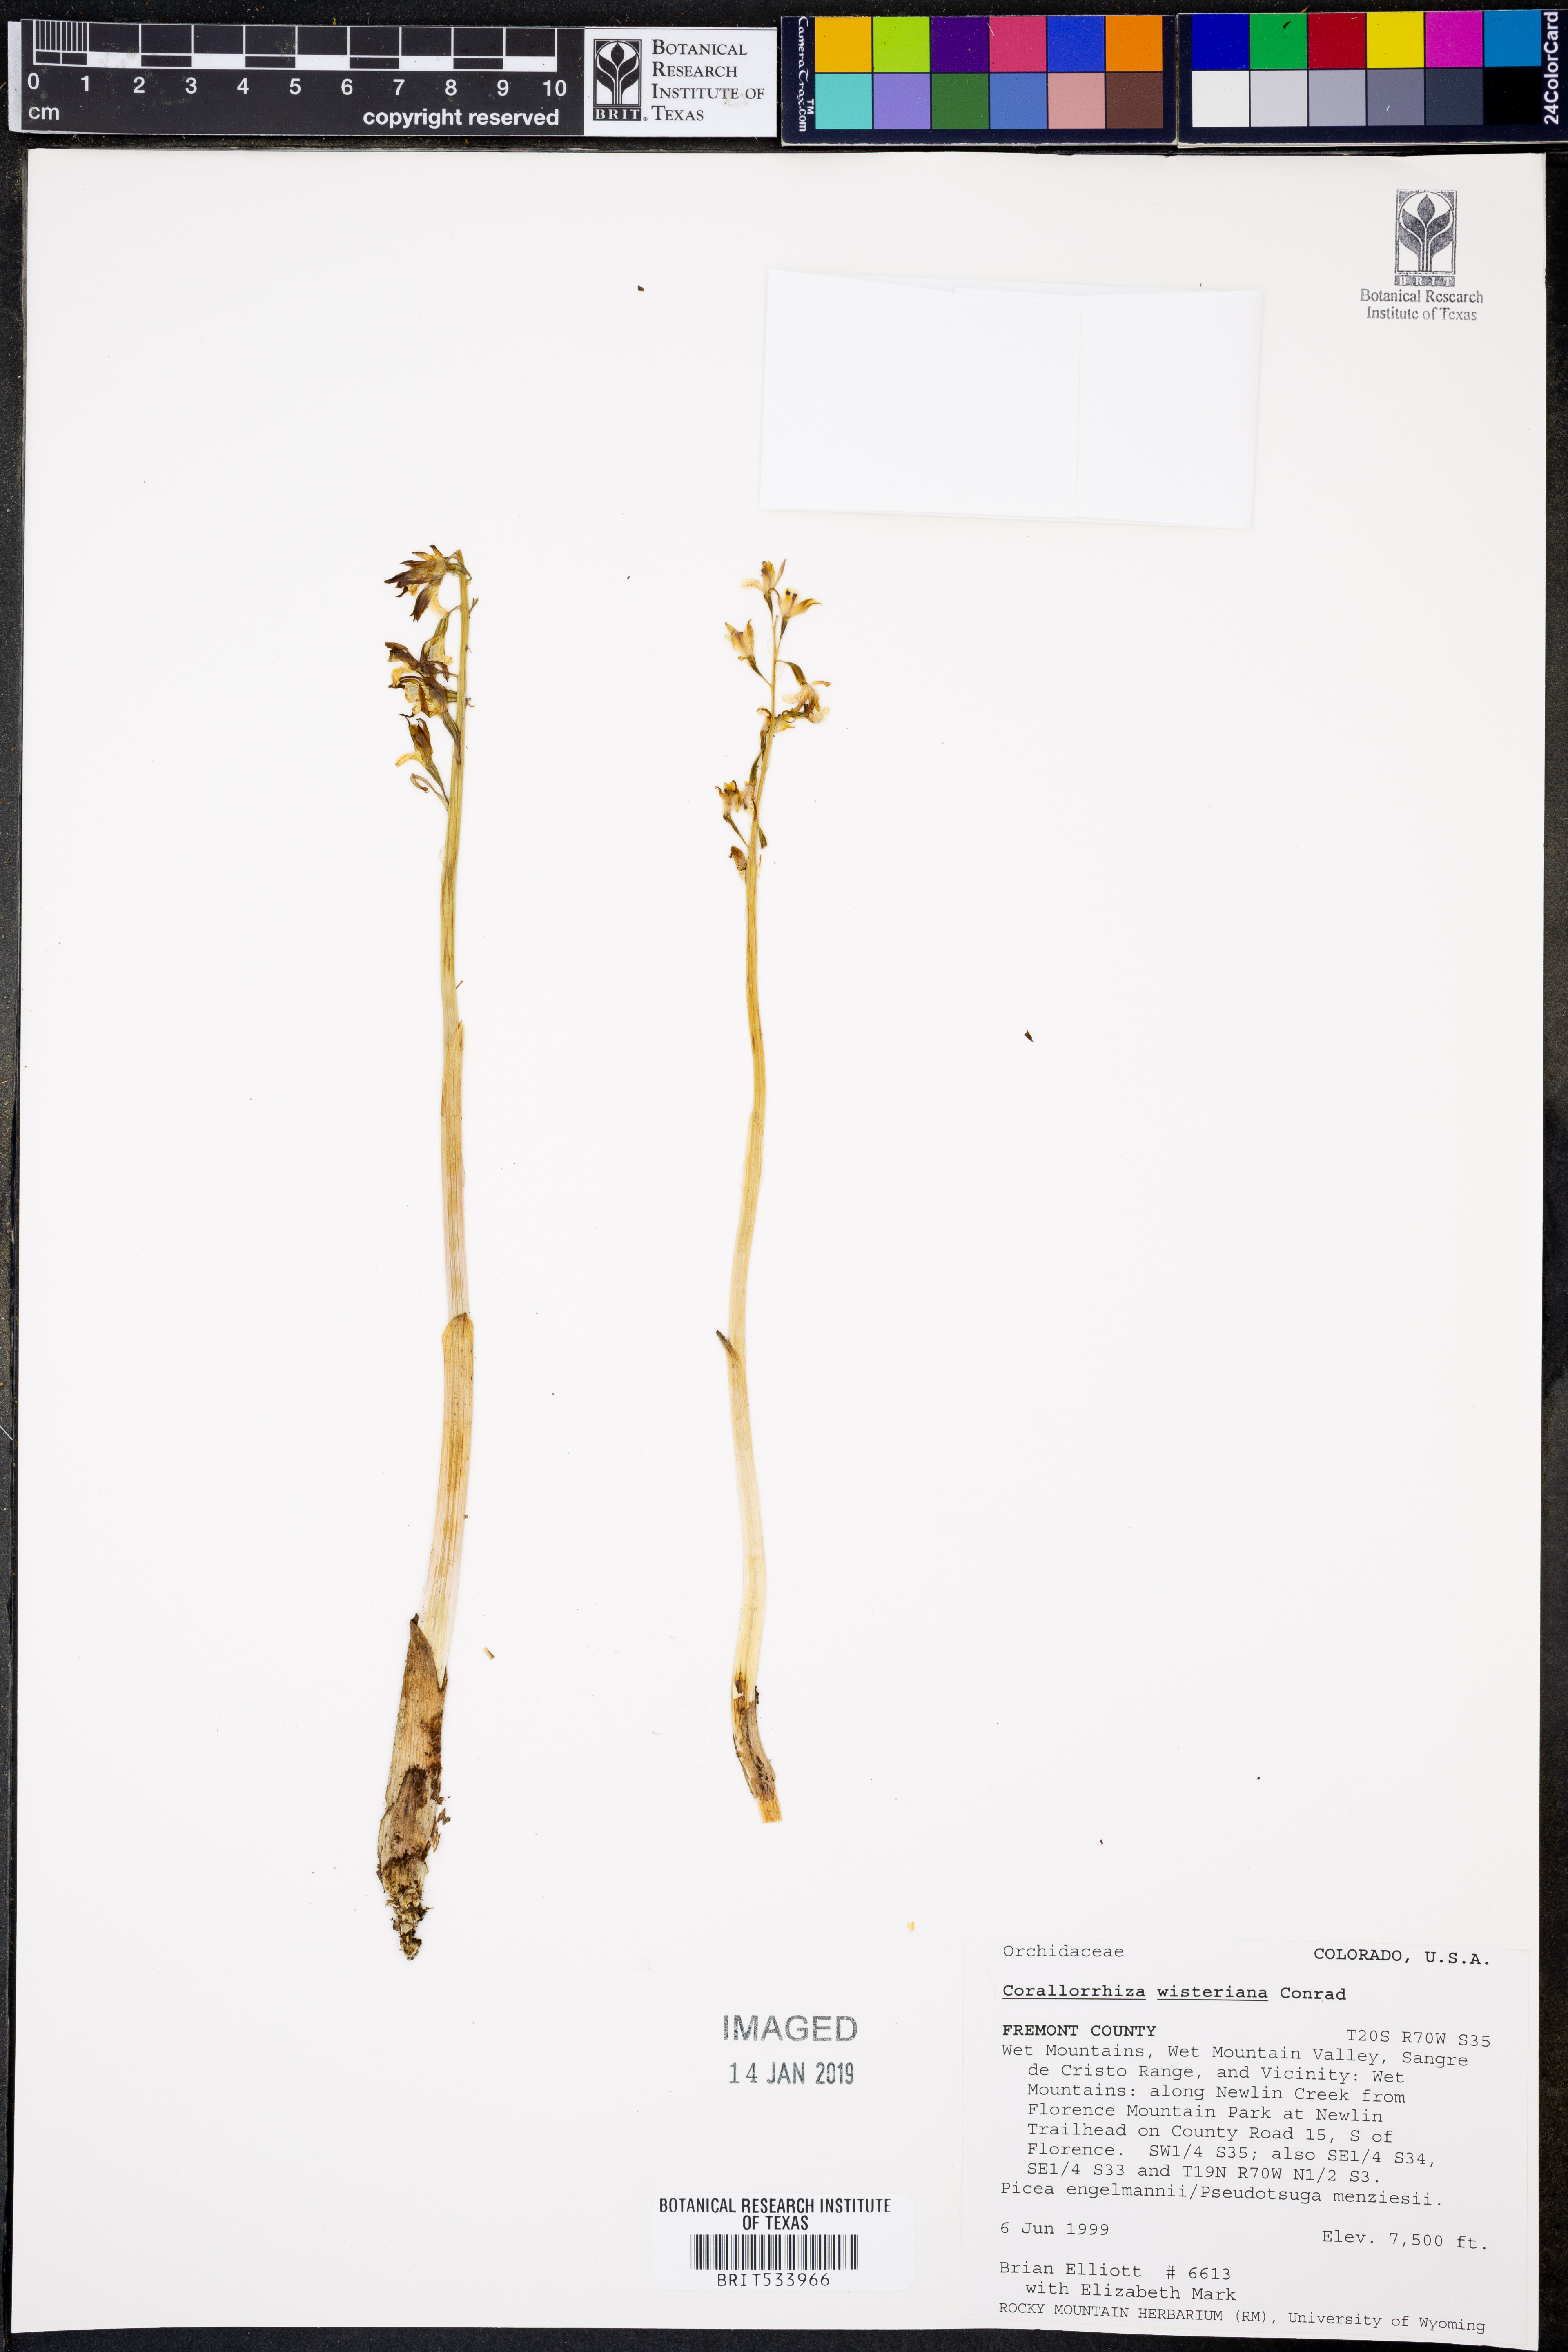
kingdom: Plantae
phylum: Tracheophyta
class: Liliopsida
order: Asparagales
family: Orchidaceae
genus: Corallorhiza
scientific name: Corallorhiza wisteriana
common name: Spring coralroot
